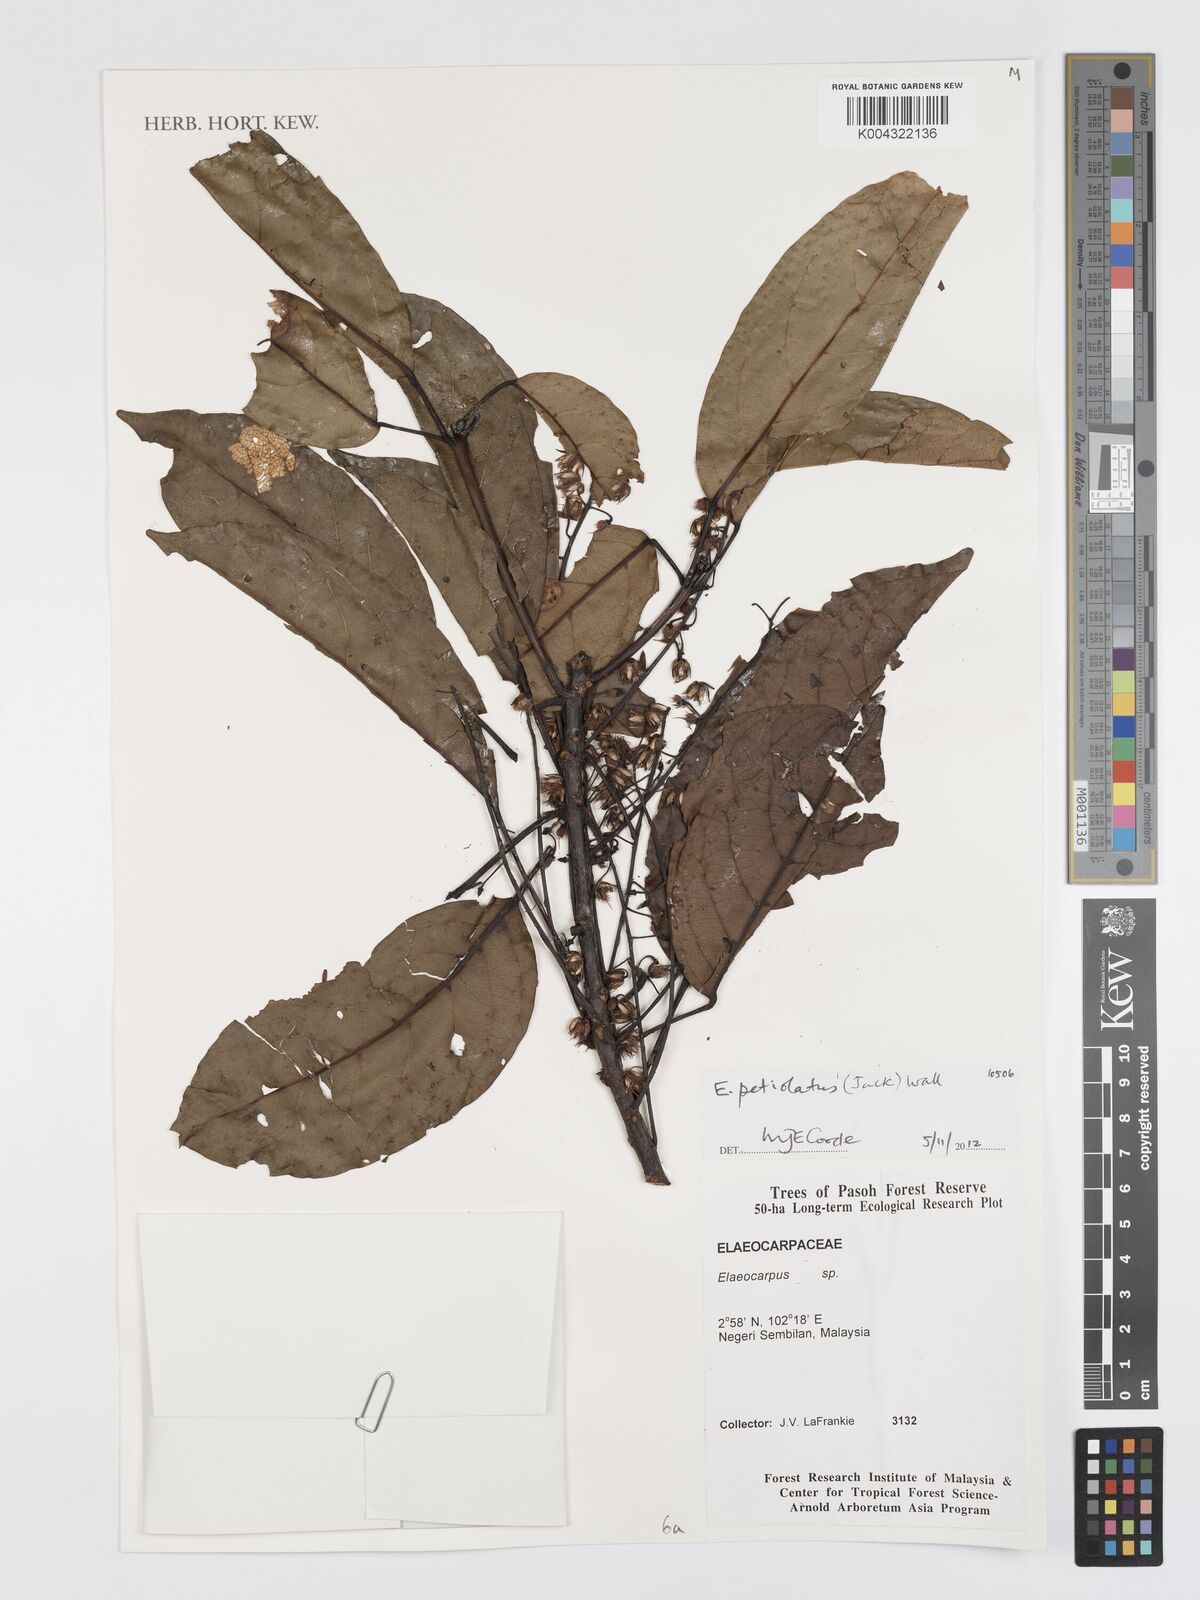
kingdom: Plantae
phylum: Tracheophyta
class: Magnoliopsida
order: Oxalidales
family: Elaeocarpaceae
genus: Elaeocarpus
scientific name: Elaeocarpus petiolatus
